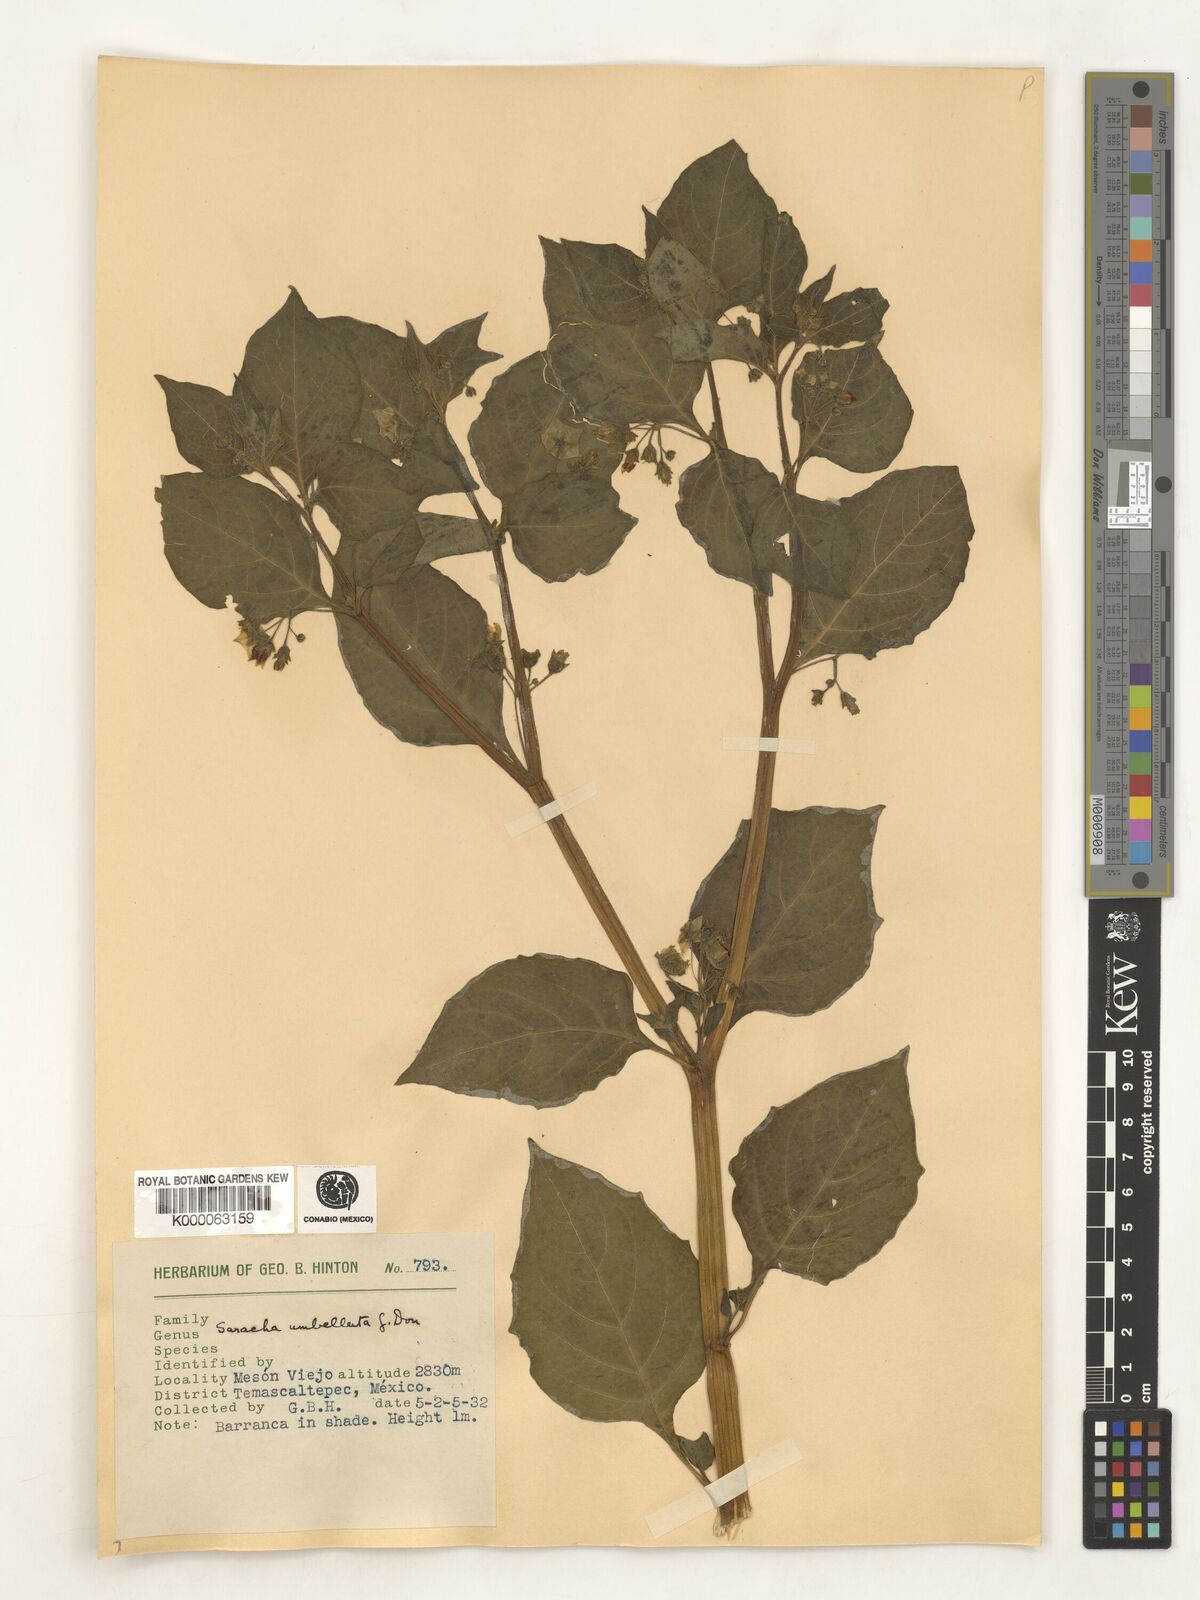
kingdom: Plantae
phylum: Tracheophyta
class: Magnoliopsida
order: Solanales
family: Solanaceae
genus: Saracha
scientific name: Saracha
